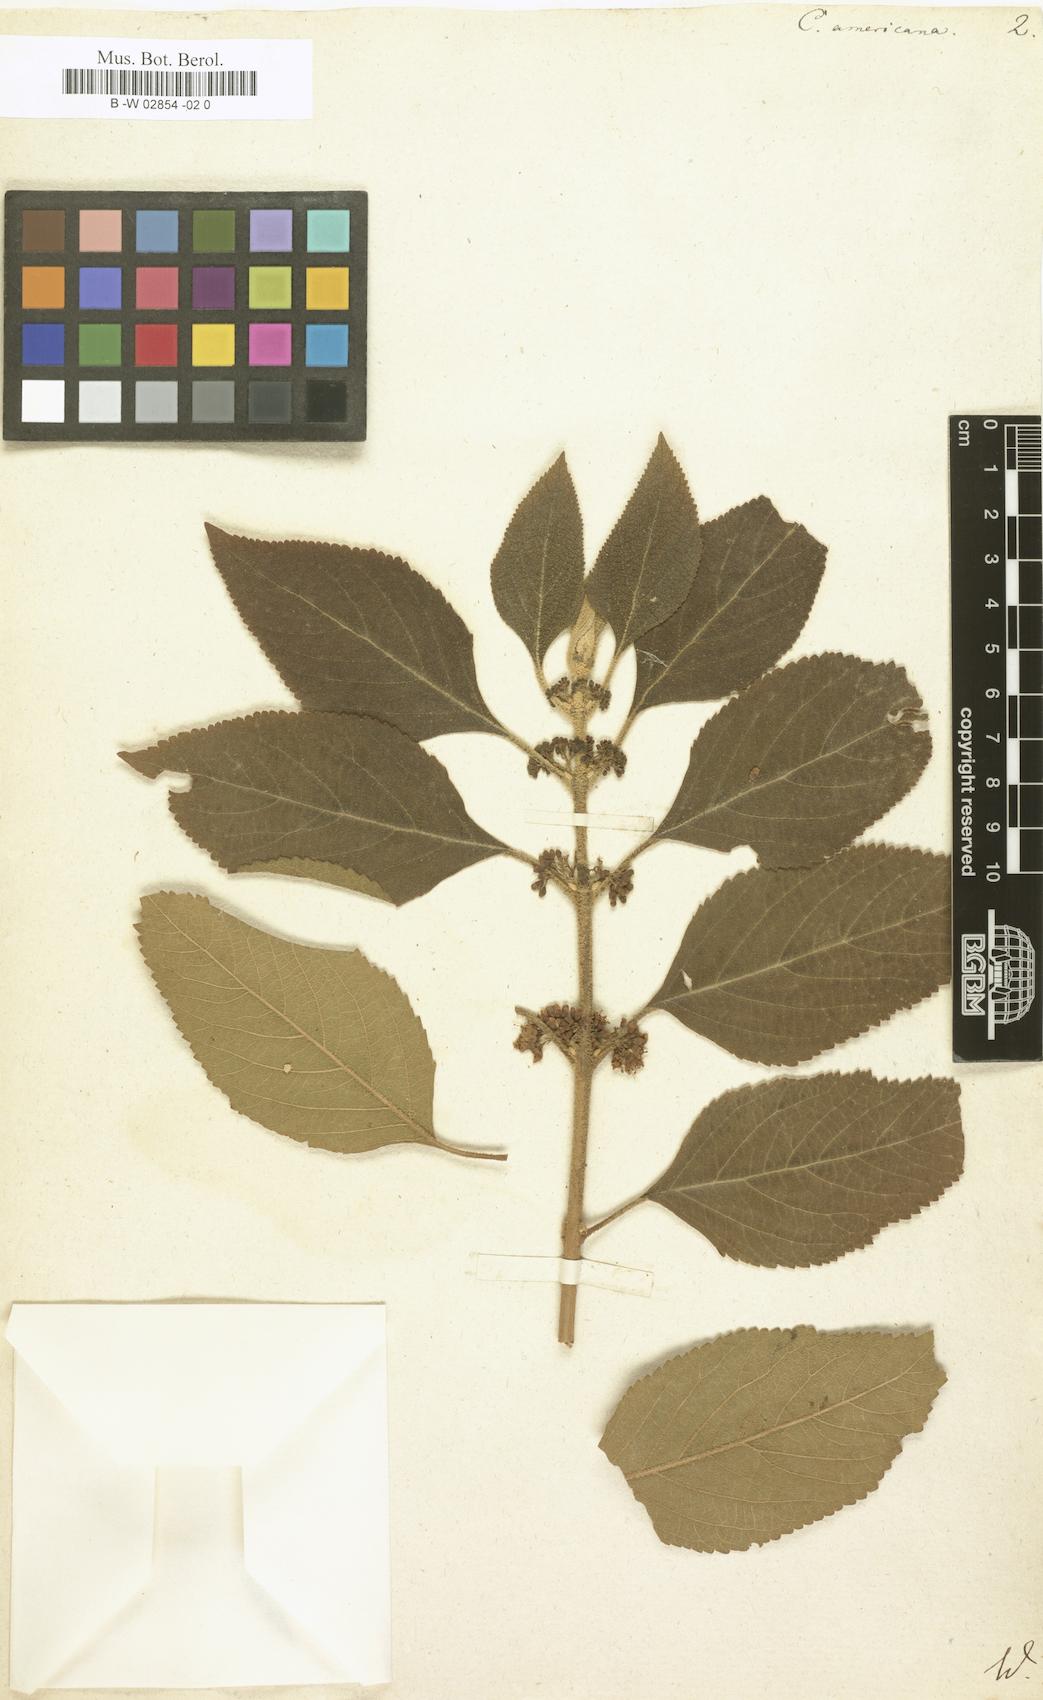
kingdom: Plantae
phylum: Tracheophyta
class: Magnoliopsida
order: Lamiales
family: Lamiaceae
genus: Callicarpa
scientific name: Callicarpa americana
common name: American beautyberry
